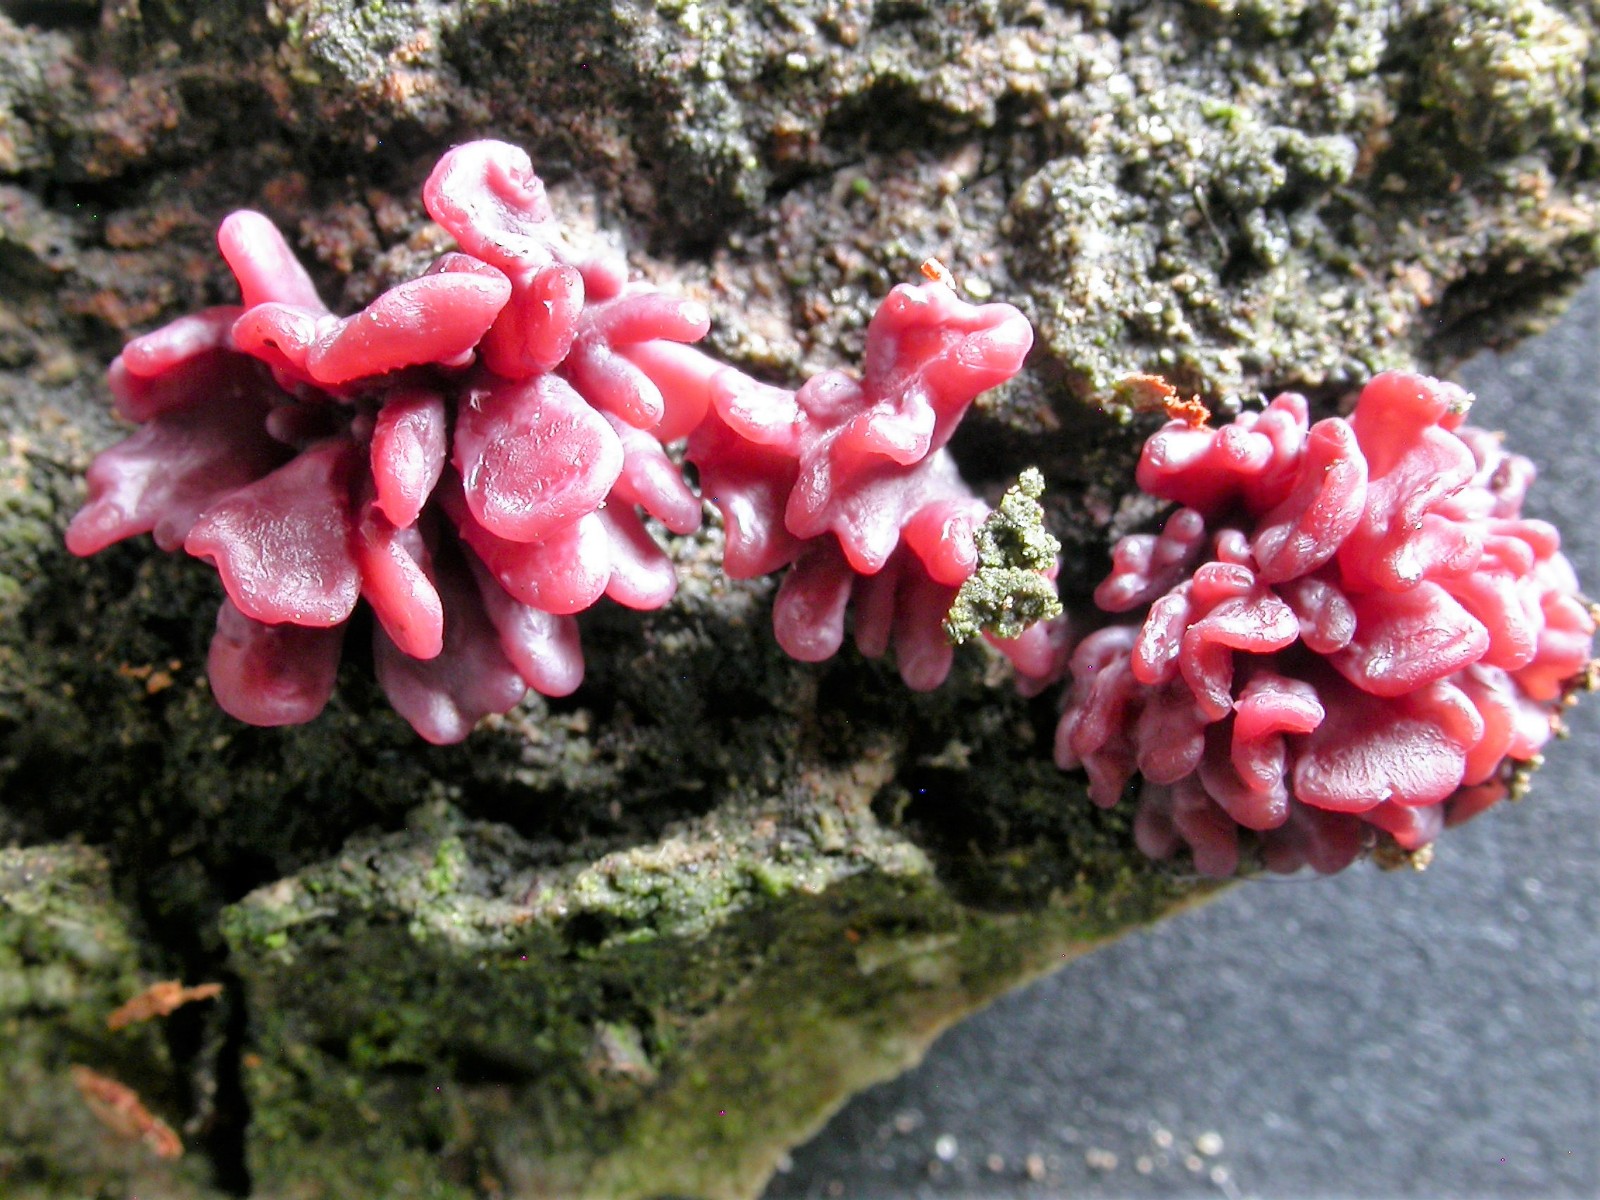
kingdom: Fungi
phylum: Ascomycota
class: Leotiomycetes
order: Helotiales
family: Gelatinodiscaceae
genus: Ascocoryne
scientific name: Ascocoryne sarcoides
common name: rødlilla sejskive
